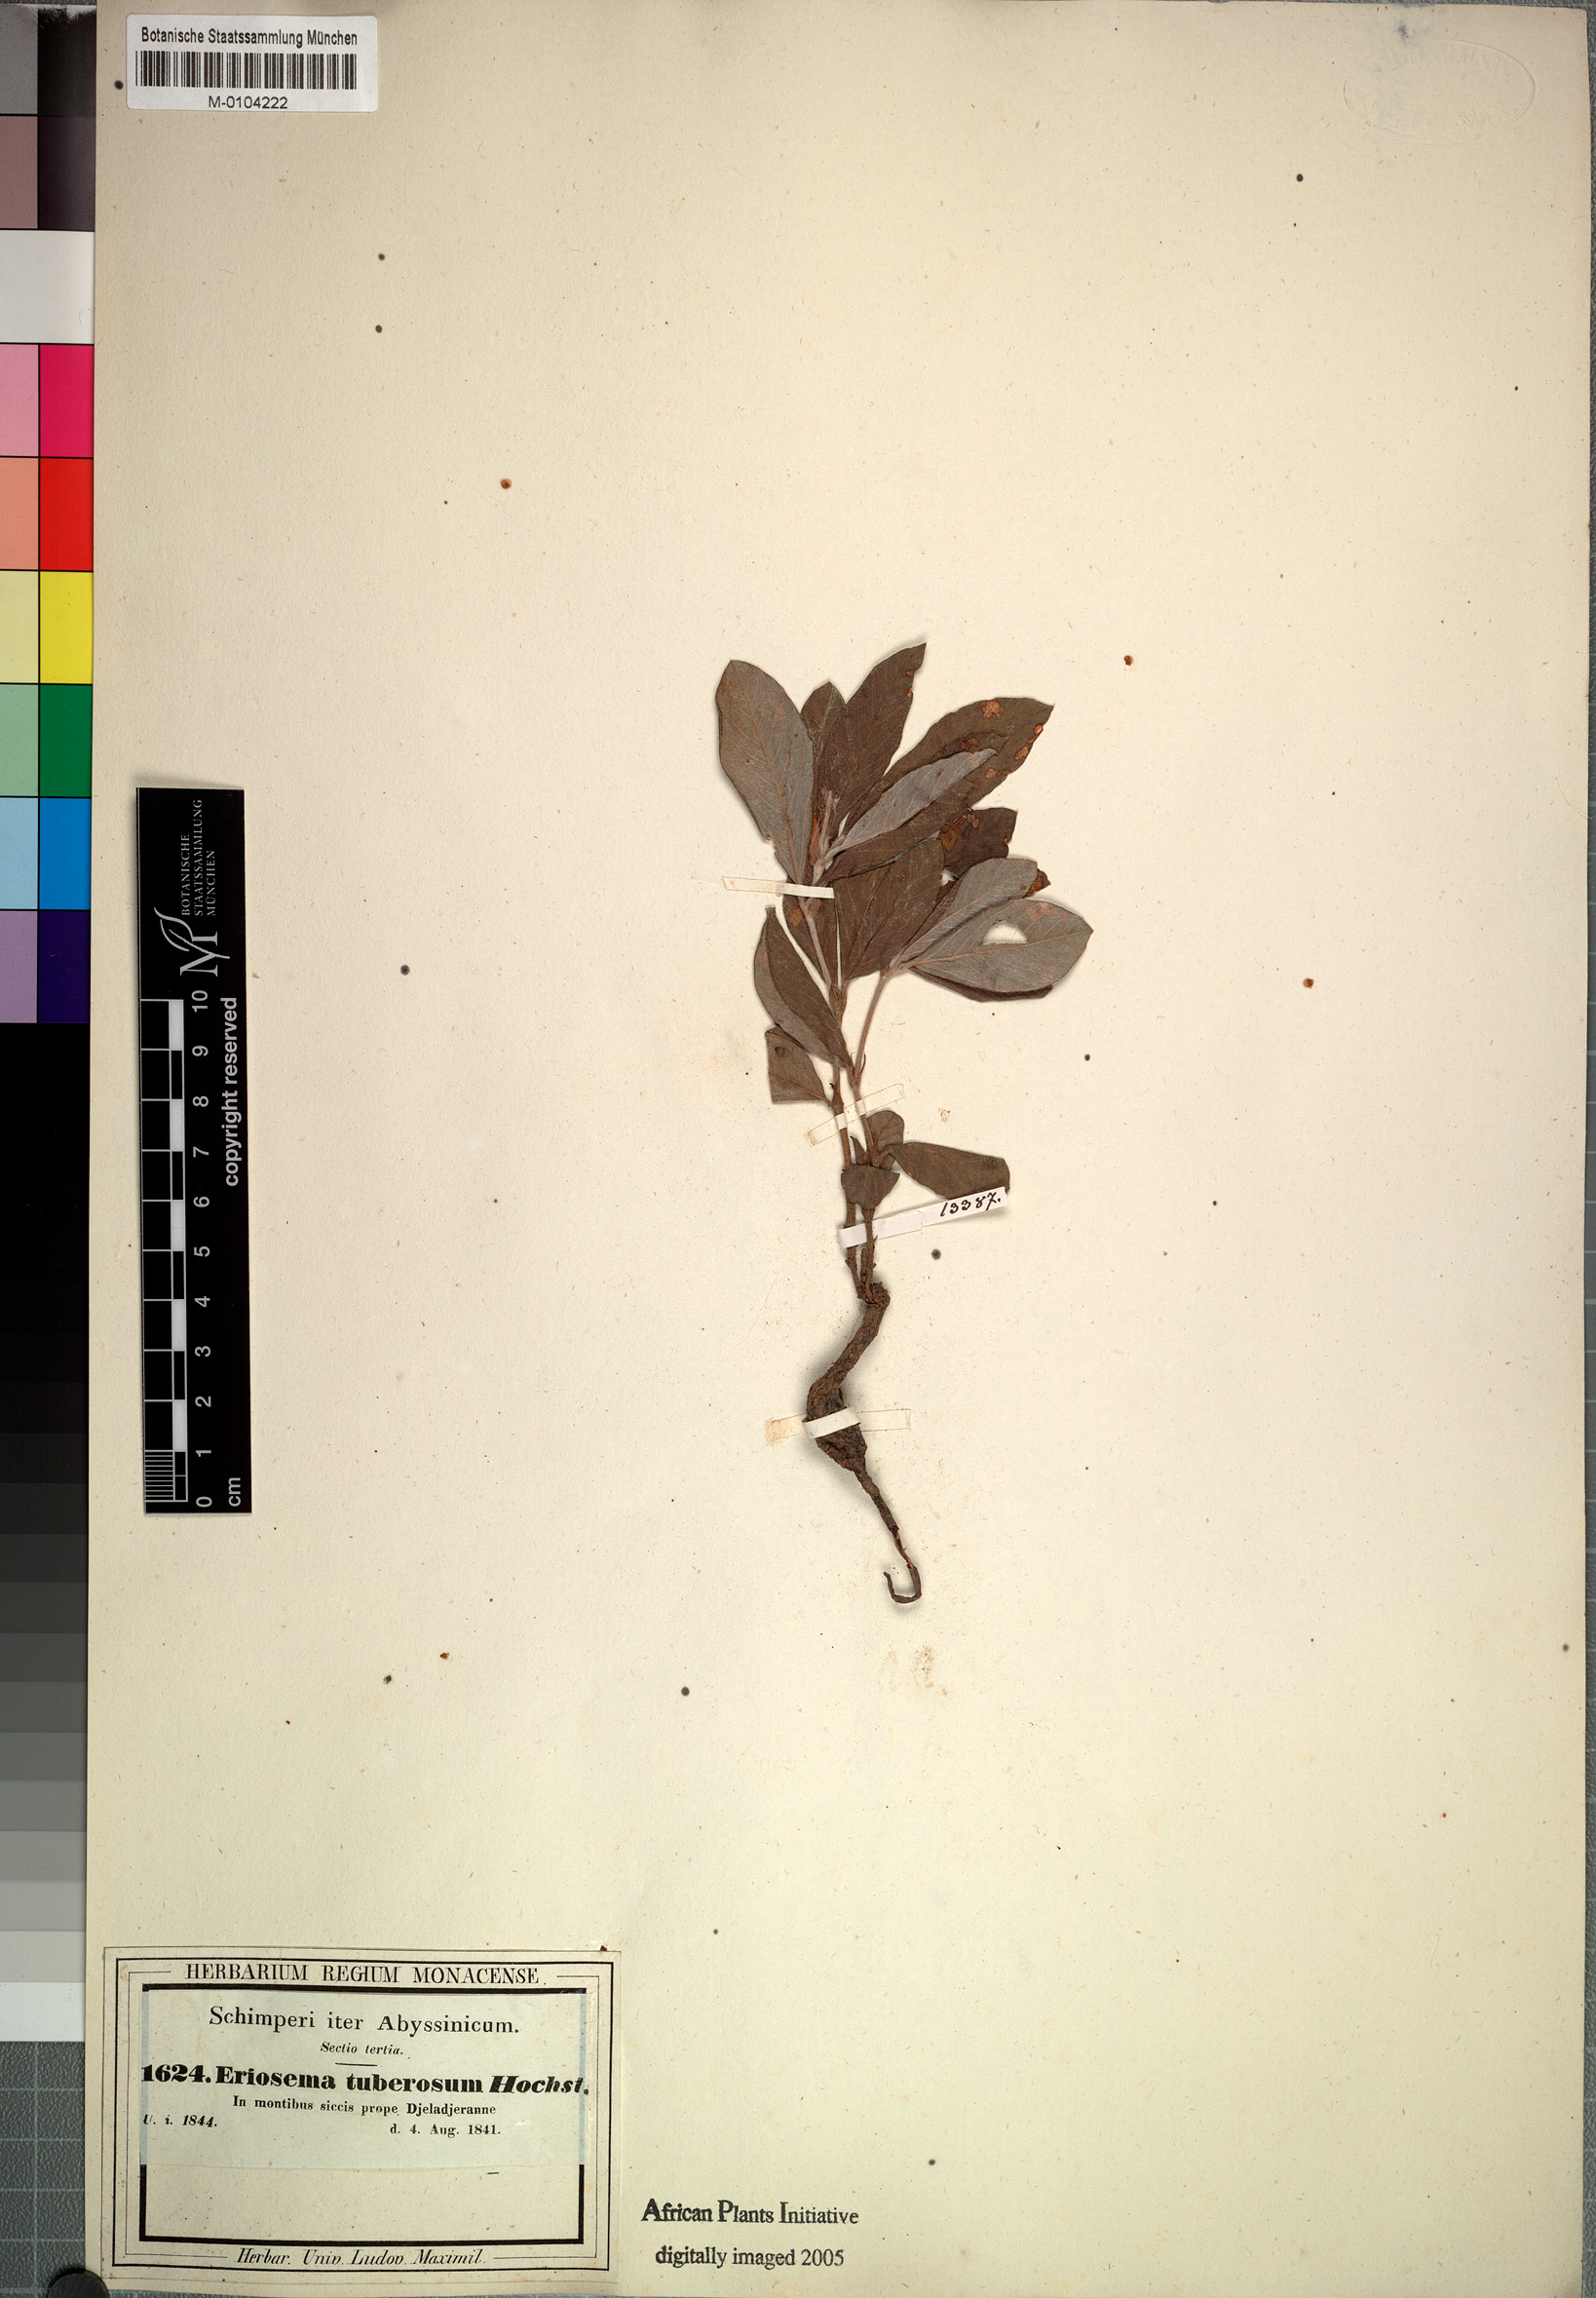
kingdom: Plantae
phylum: Tracheophyta
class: Magnoliopsida
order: Fabales
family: Fabaceae
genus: Eriosema
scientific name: Eriosema tuberosum
